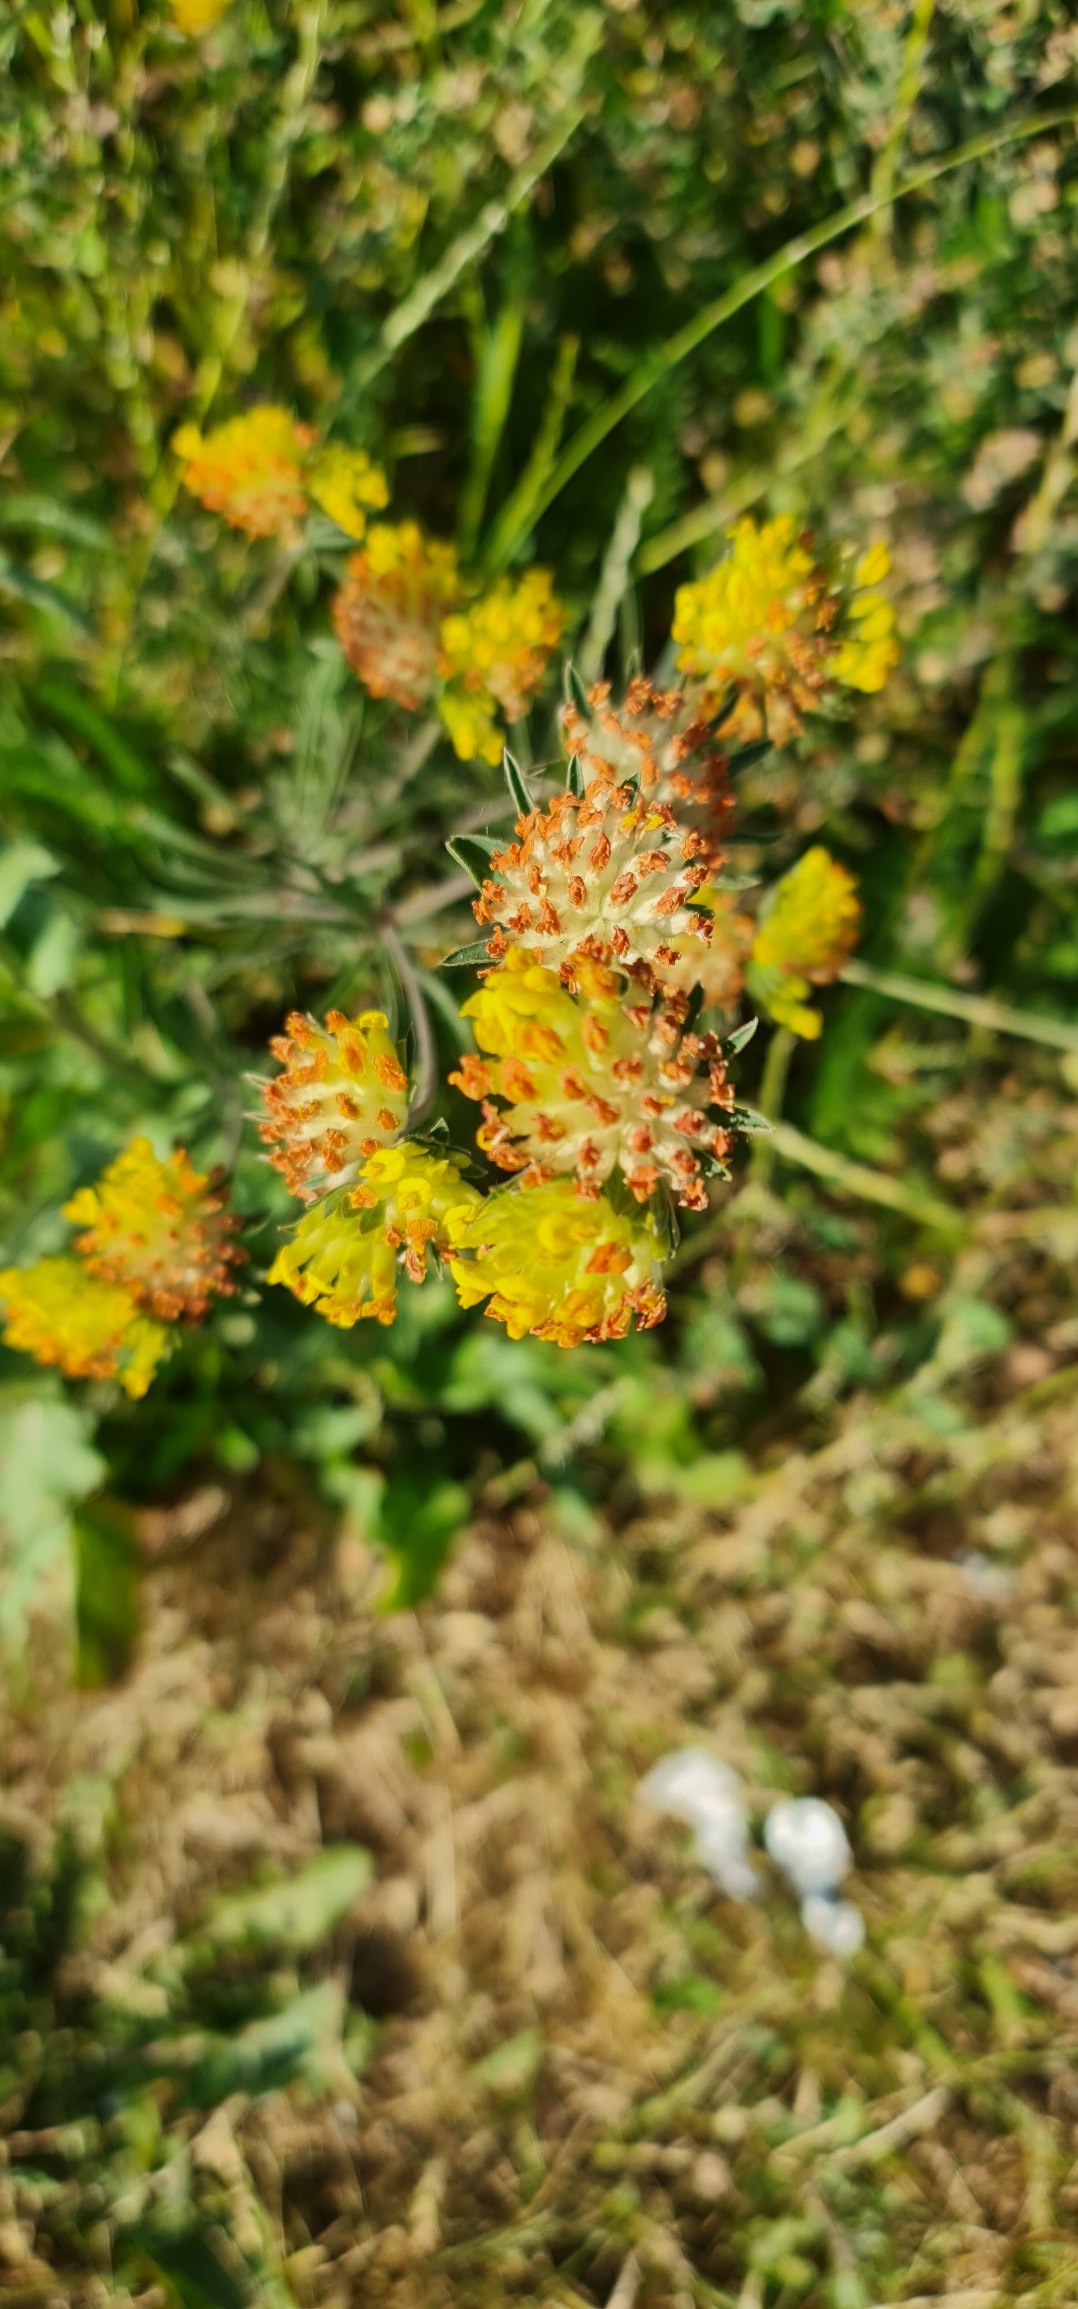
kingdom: Plantae
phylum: Tracheophyta
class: Magnoliopsida
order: Fabales
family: Fabaceae
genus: Anthyllis
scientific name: Anthyllis vulneraria
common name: Rundbælg
